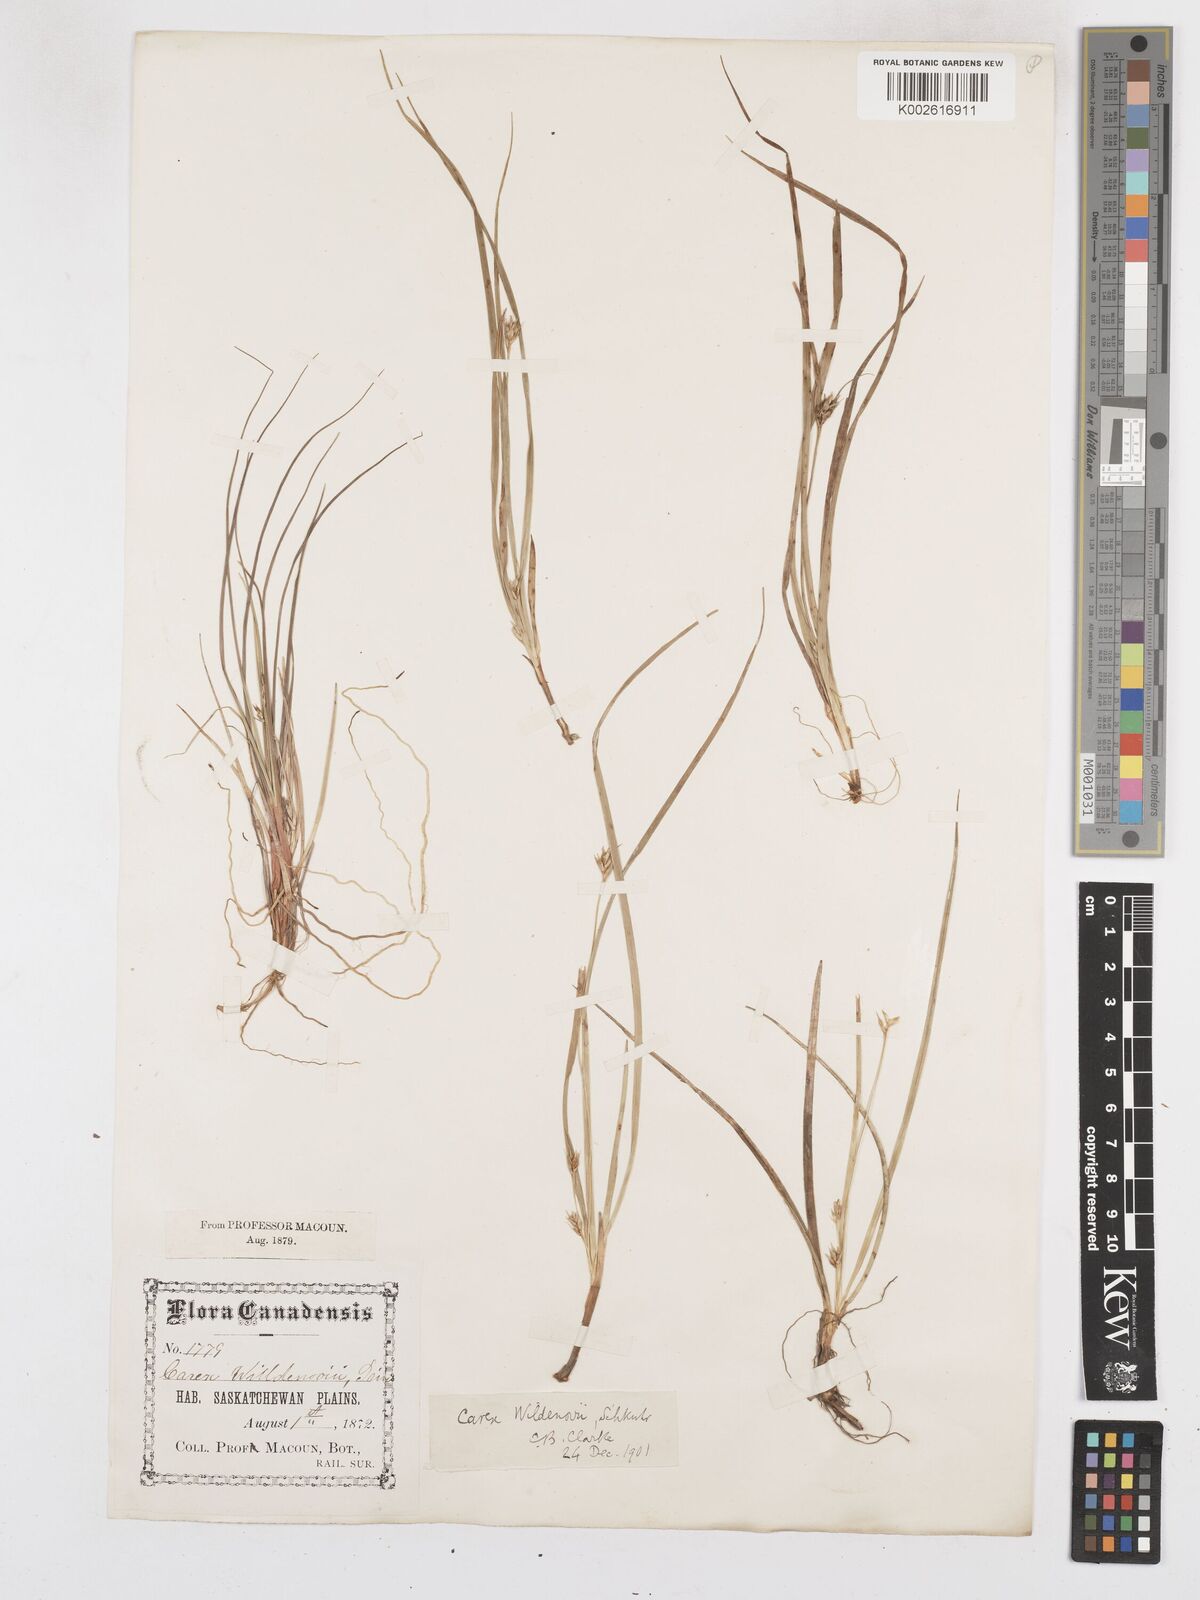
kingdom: Plantae
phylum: Tracheophyta
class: Liliopsida
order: Poales
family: Cyperaceae
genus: Carex
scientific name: Carex willdenowii
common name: Willdenow's sedge
